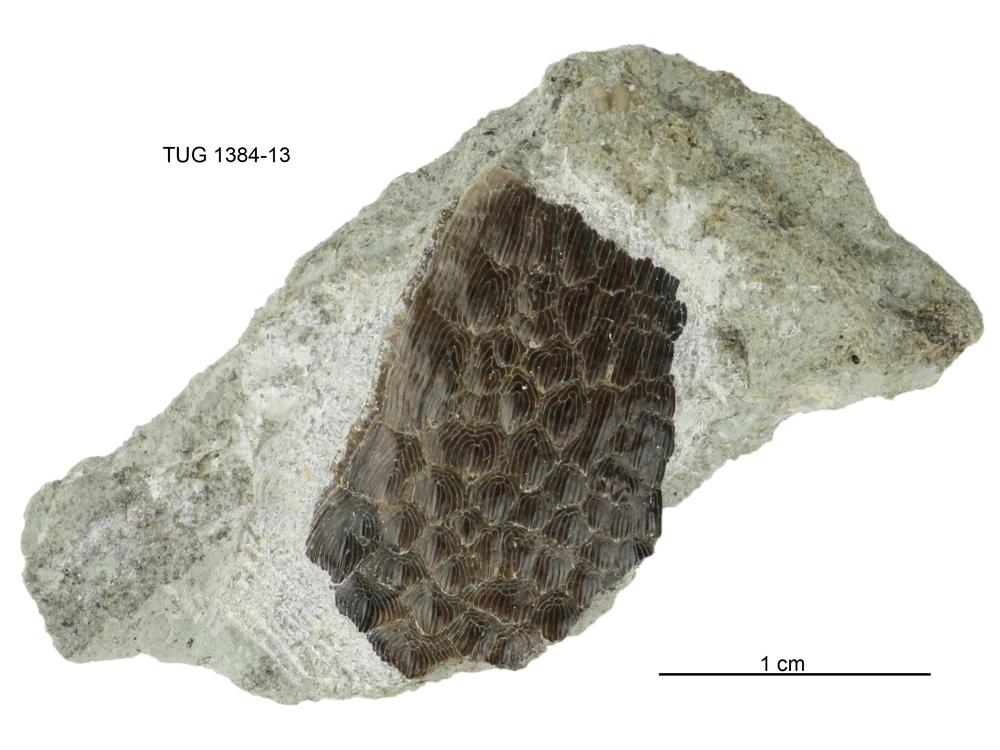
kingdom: Animalia
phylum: Chordata
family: Tolypelepididae
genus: Tolypelepis
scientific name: Tolypelepis
